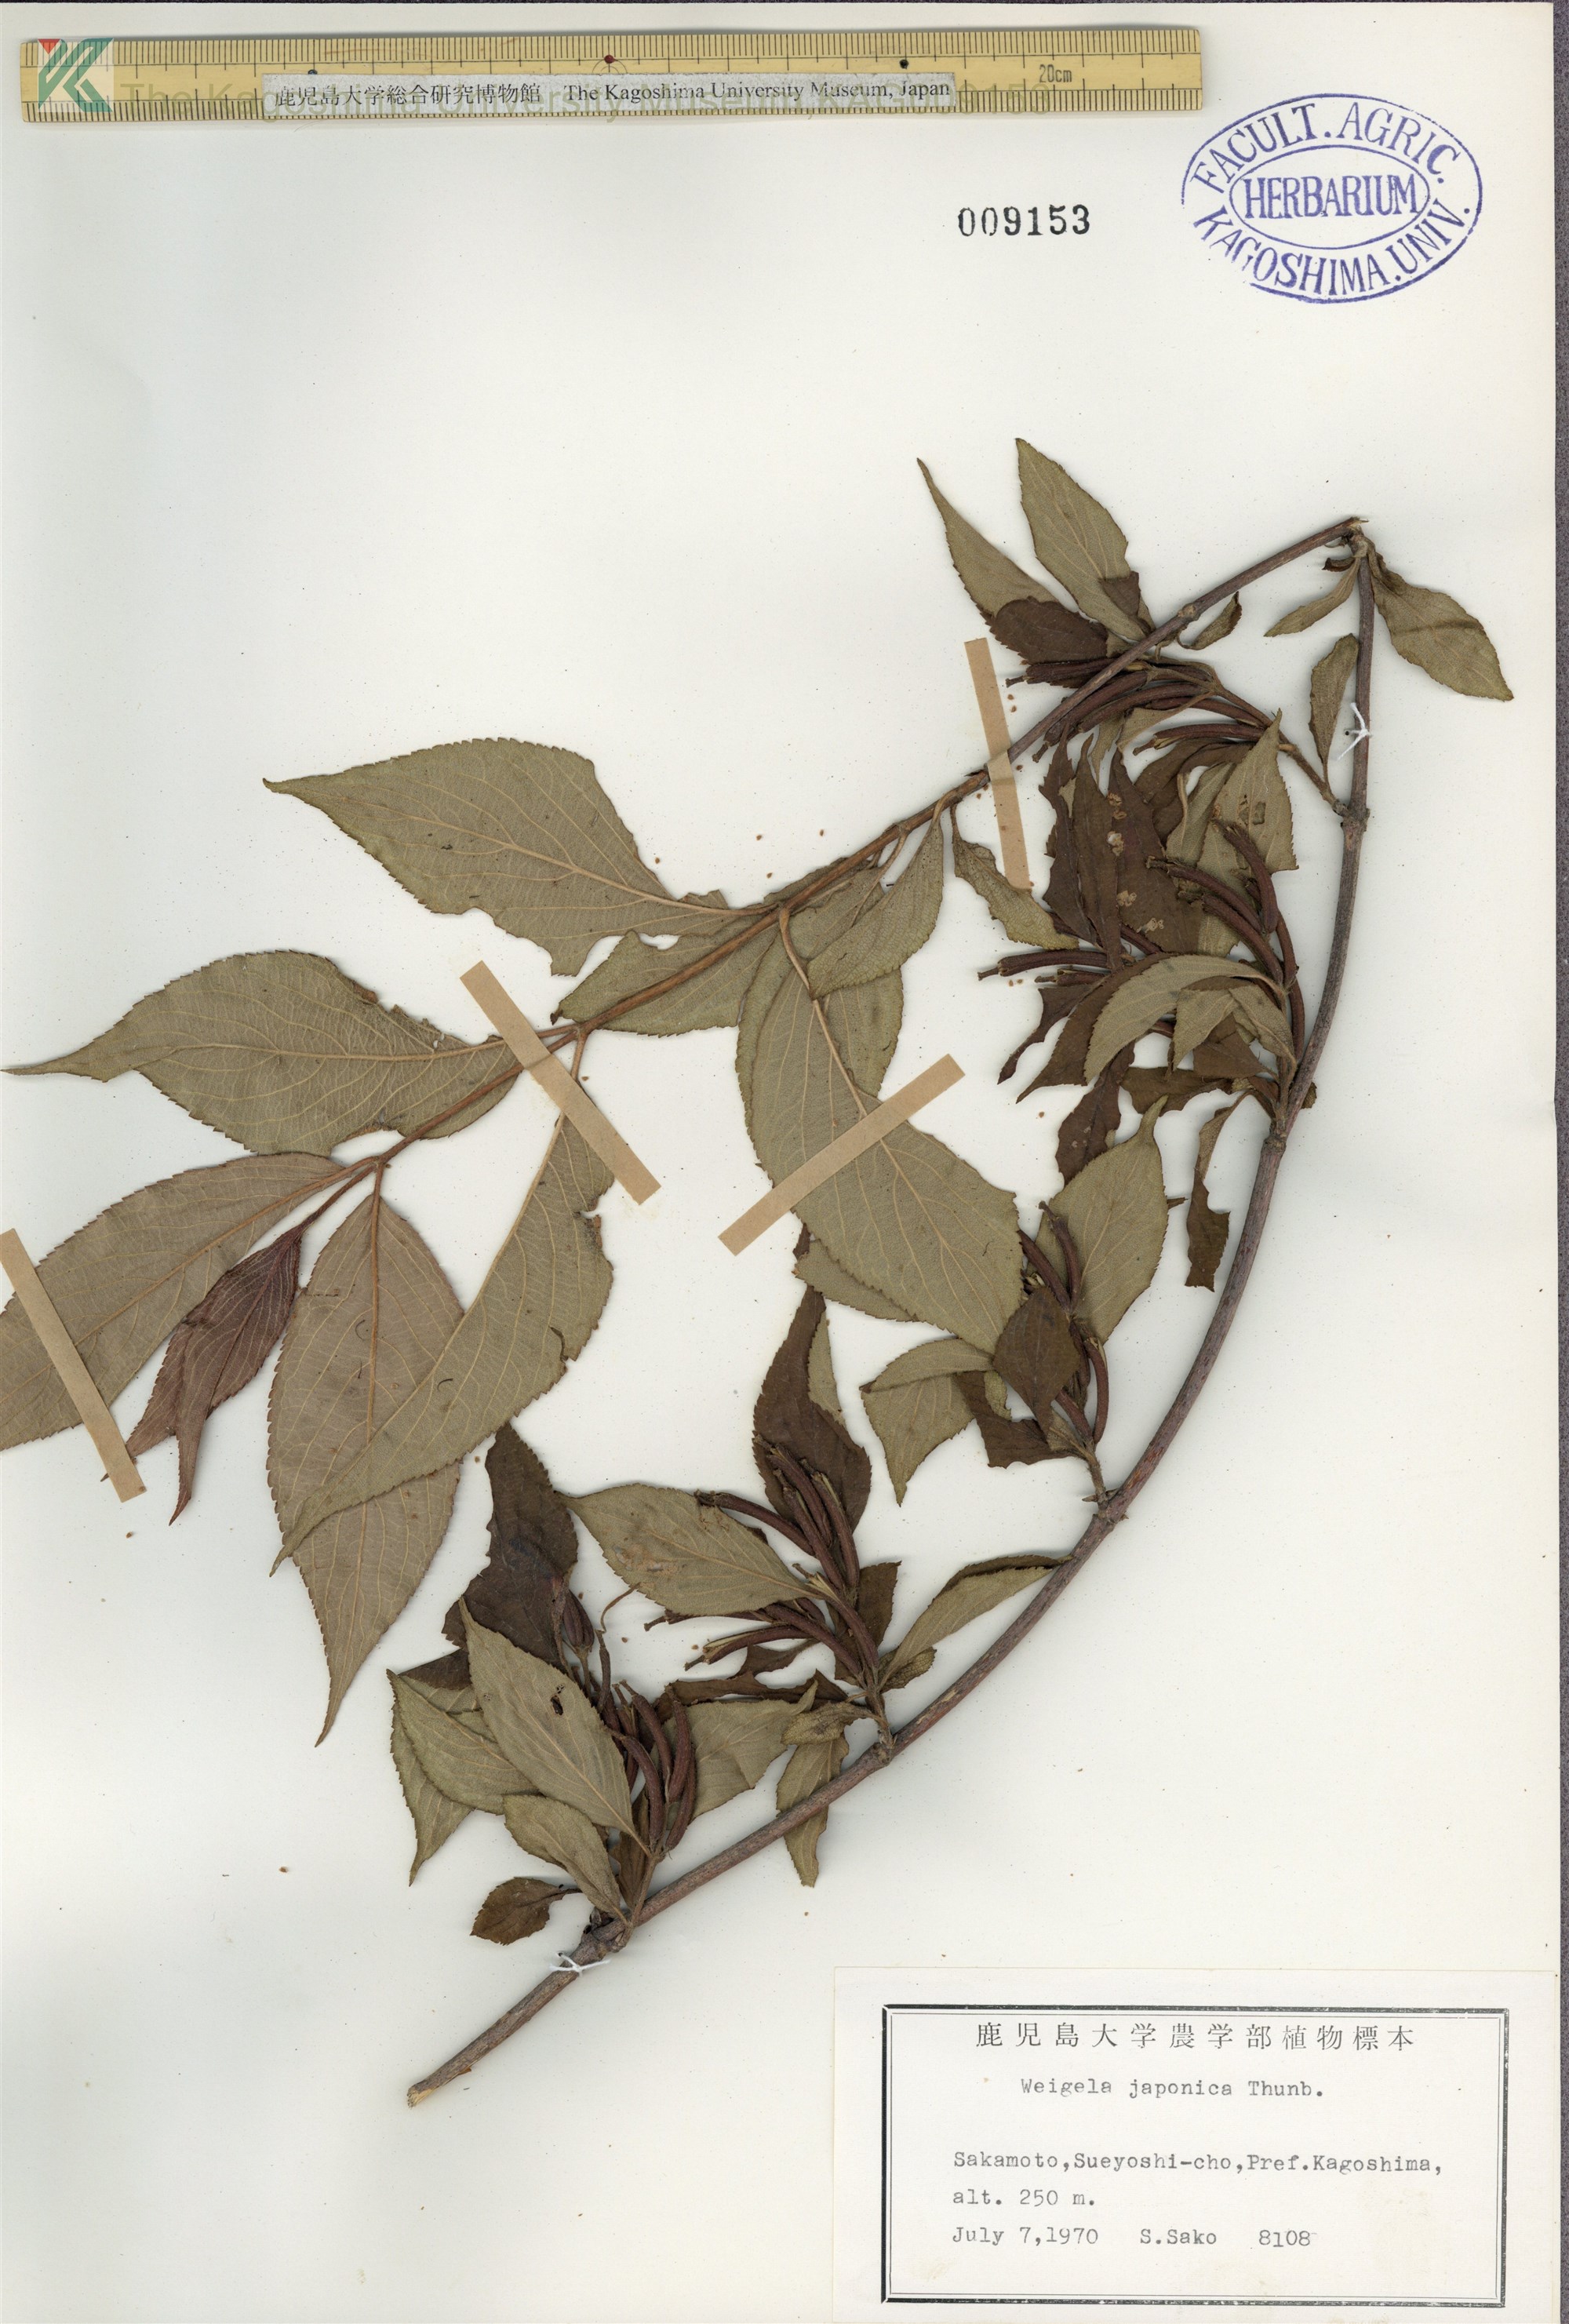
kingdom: Plantae
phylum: Tracheophyta
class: Magnoliopsida
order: Dipsacales
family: Caprifoliaceae
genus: Weigela
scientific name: Weigela japonica
